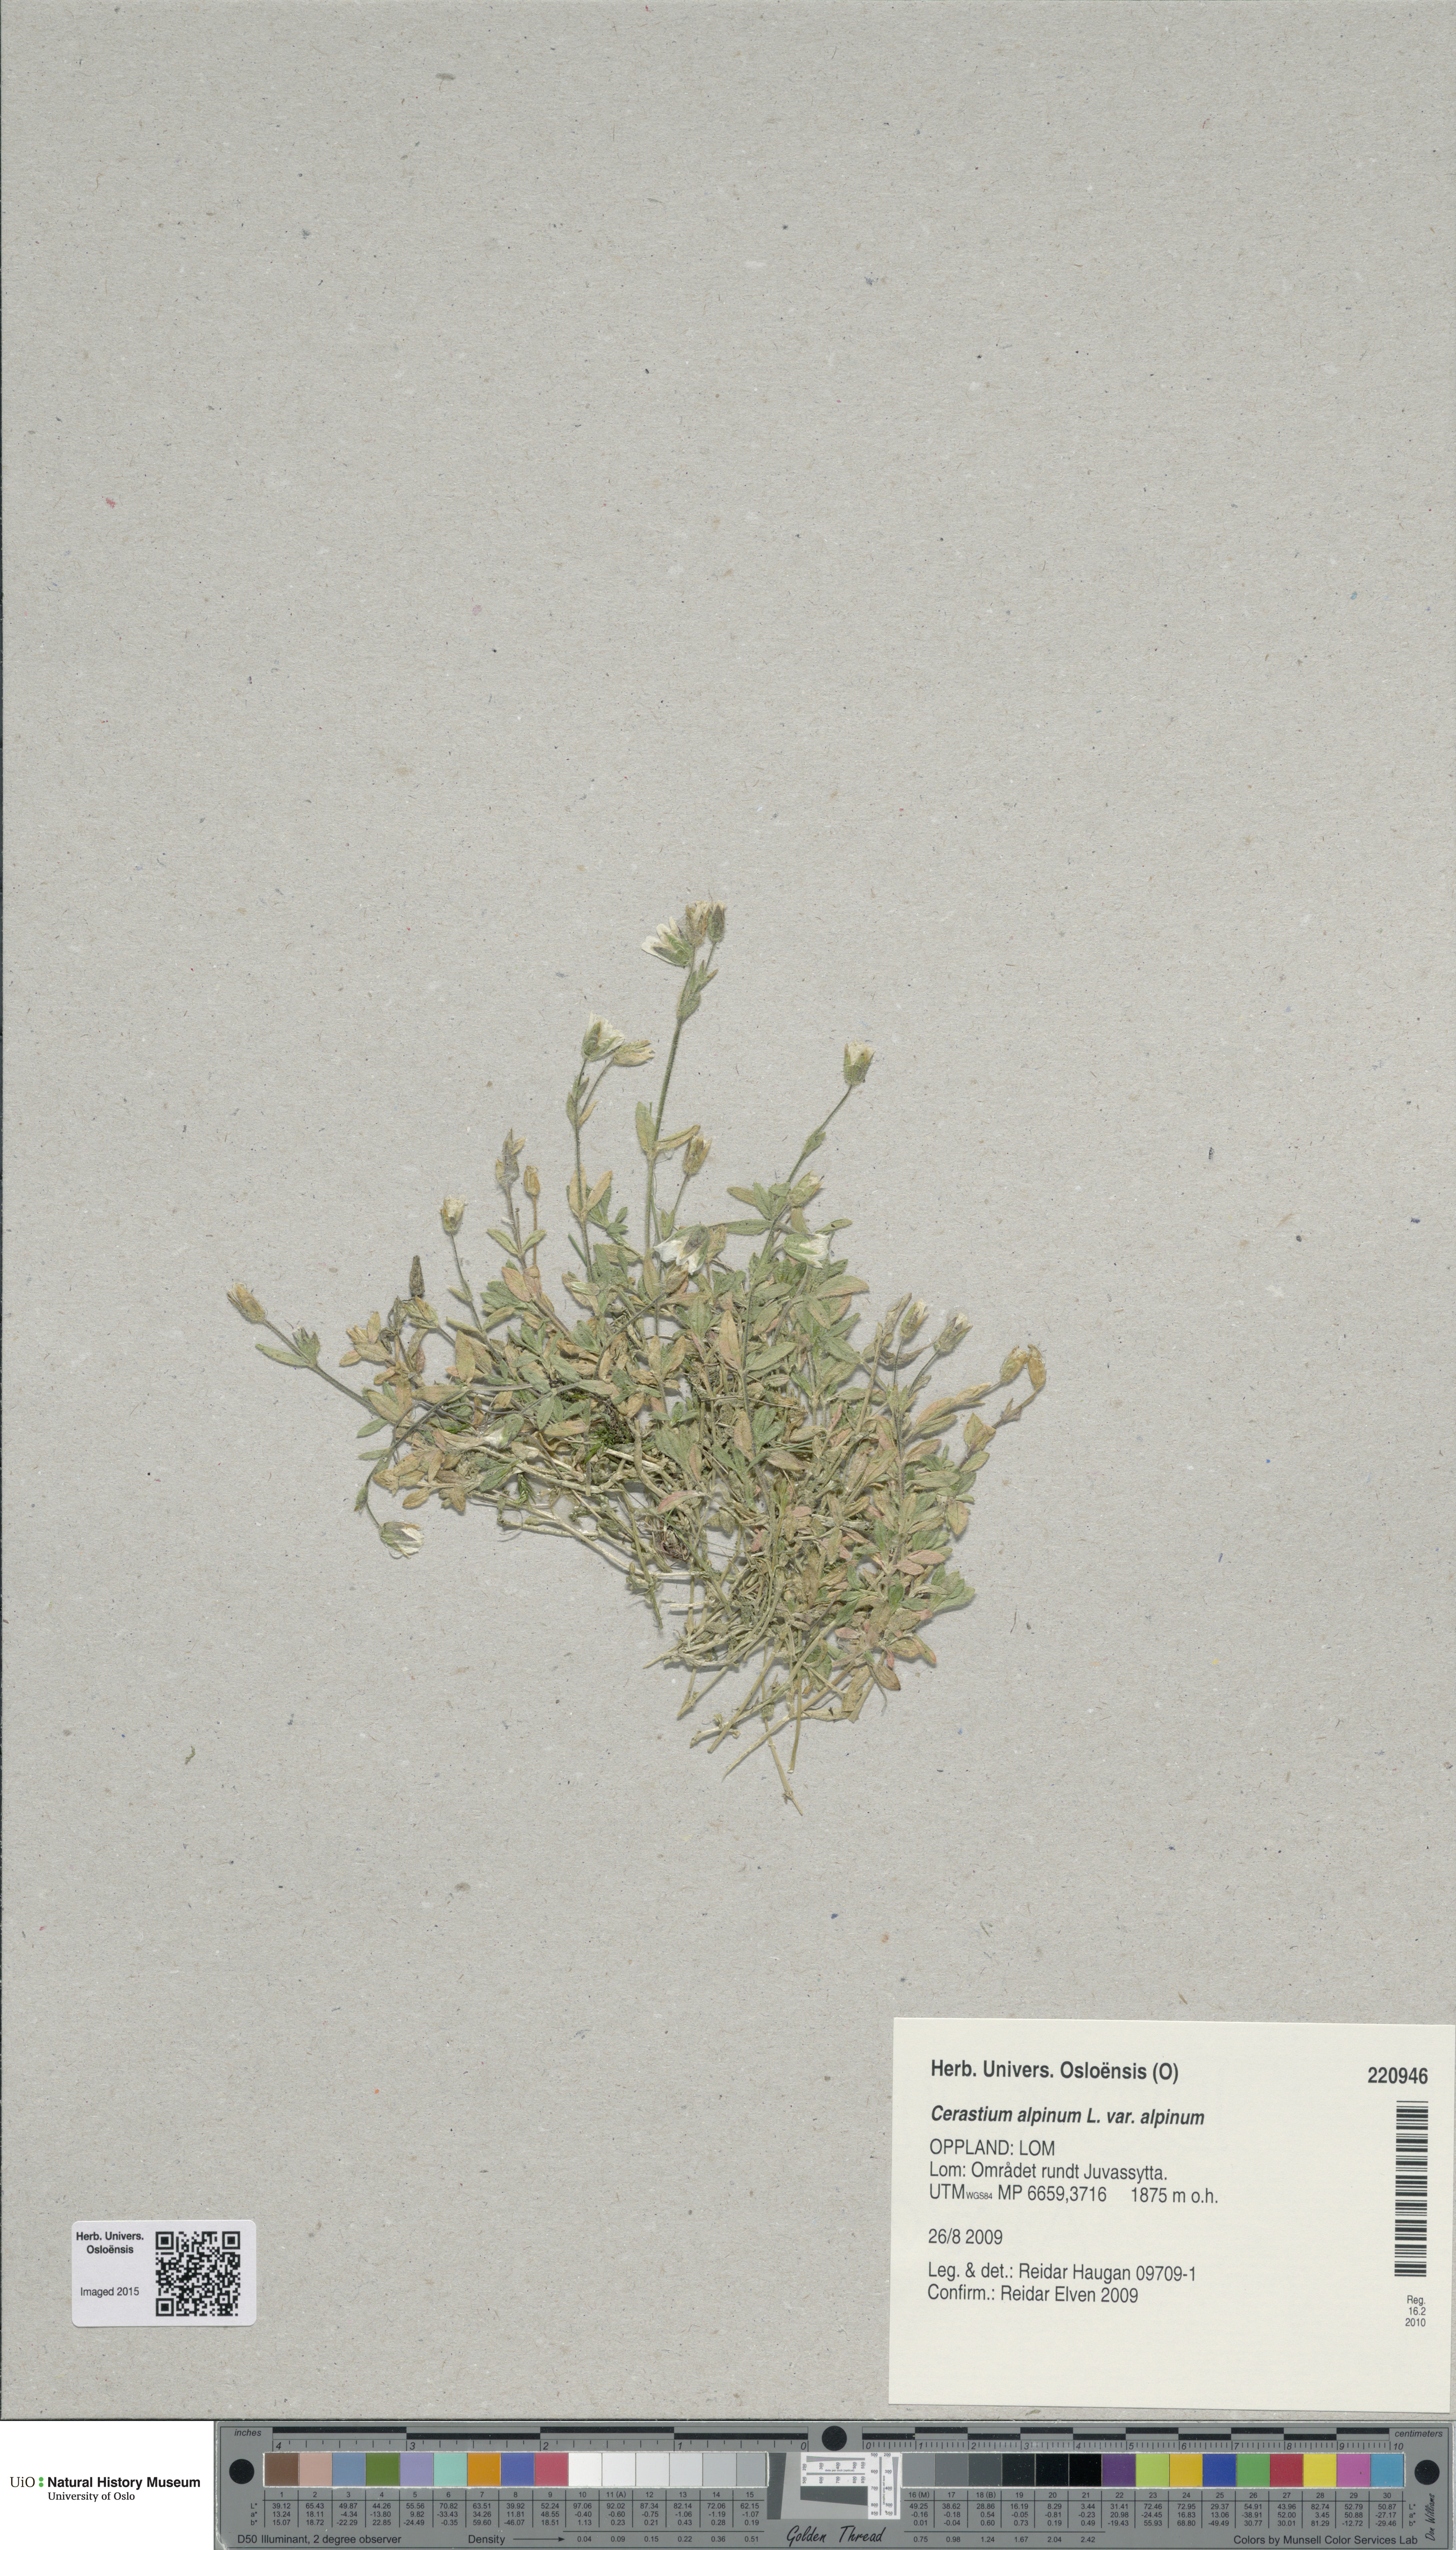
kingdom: Plantae
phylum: Tracheophyta
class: Magnoliopsida
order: Caryophyllales
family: Caryophyllaceae
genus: Cerastium
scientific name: Cerastium alpinum
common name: Alpine mouse-ear
